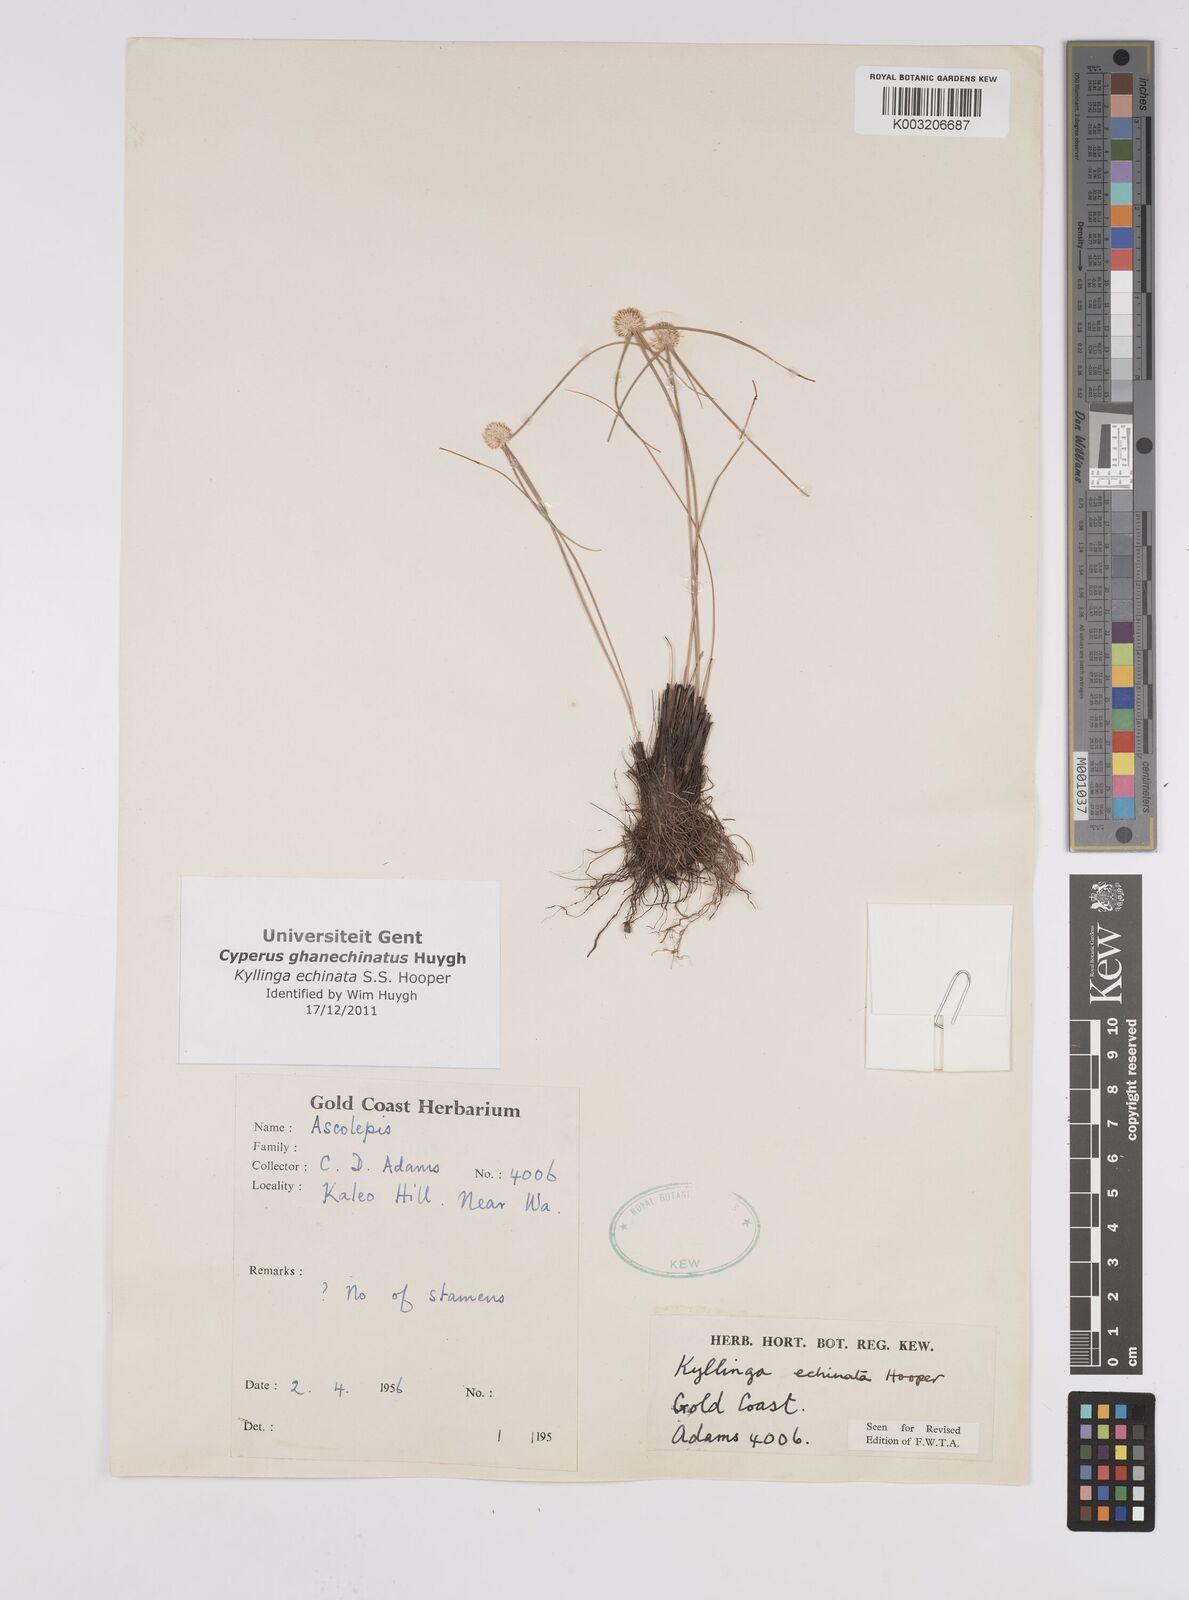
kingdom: Plantae
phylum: Tracheophyta
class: Liliopsida
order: Poales
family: Cyperaceae
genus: Cyperus
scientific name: Cyperus echinatus
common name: Teasel sedge
